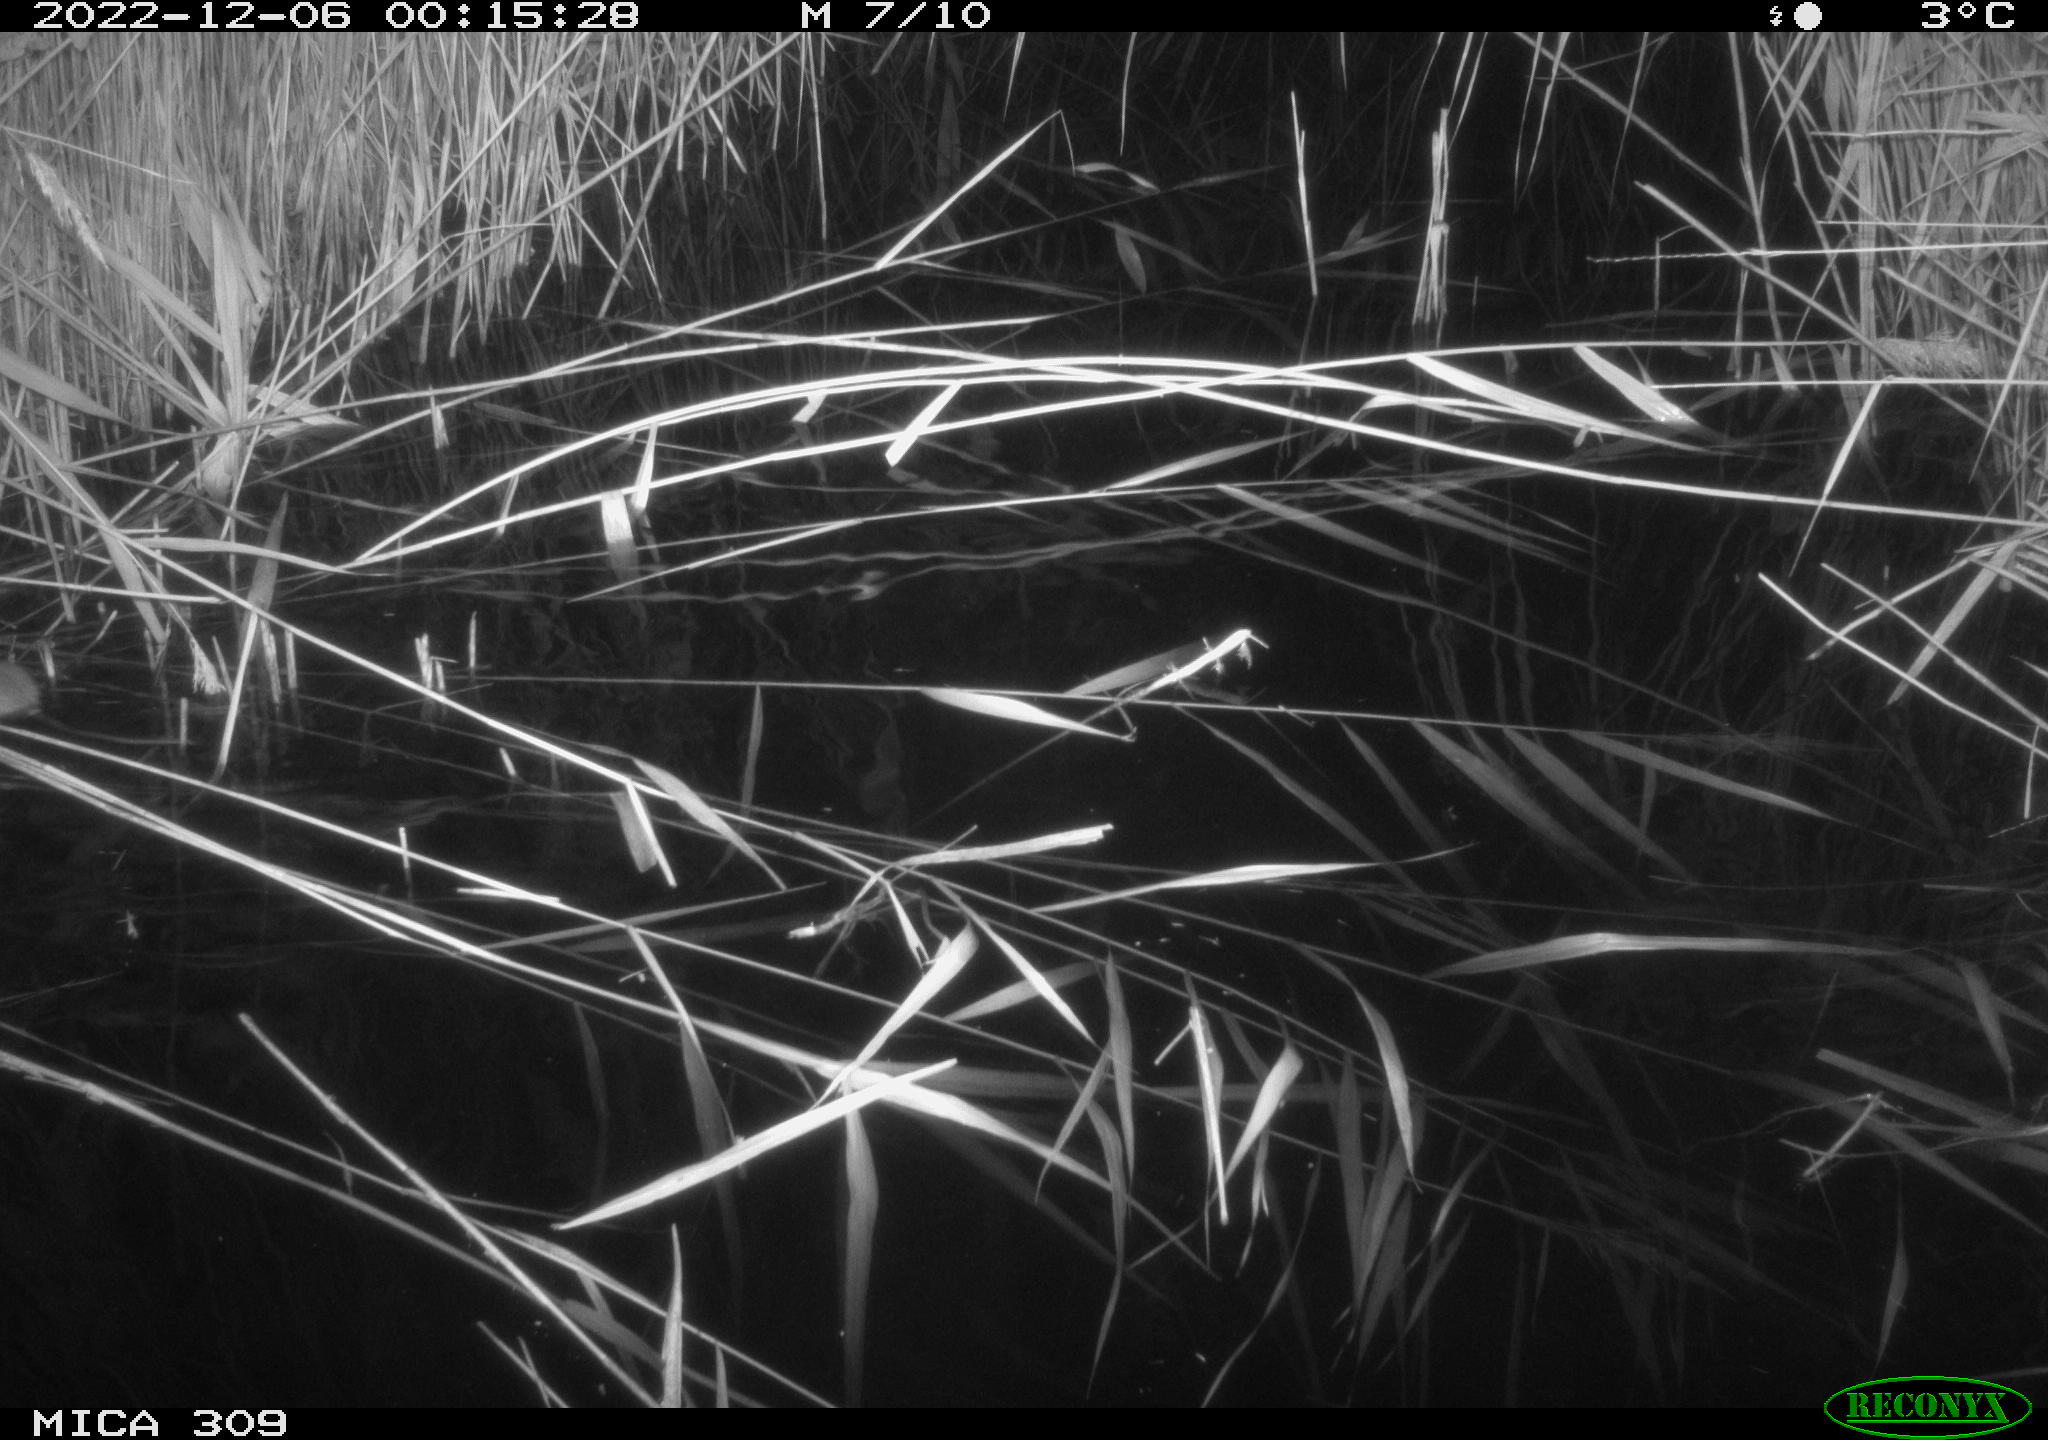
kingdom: Animalia
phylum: Chordata
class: Mammalia
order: Rodentia
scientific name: Rodentia
